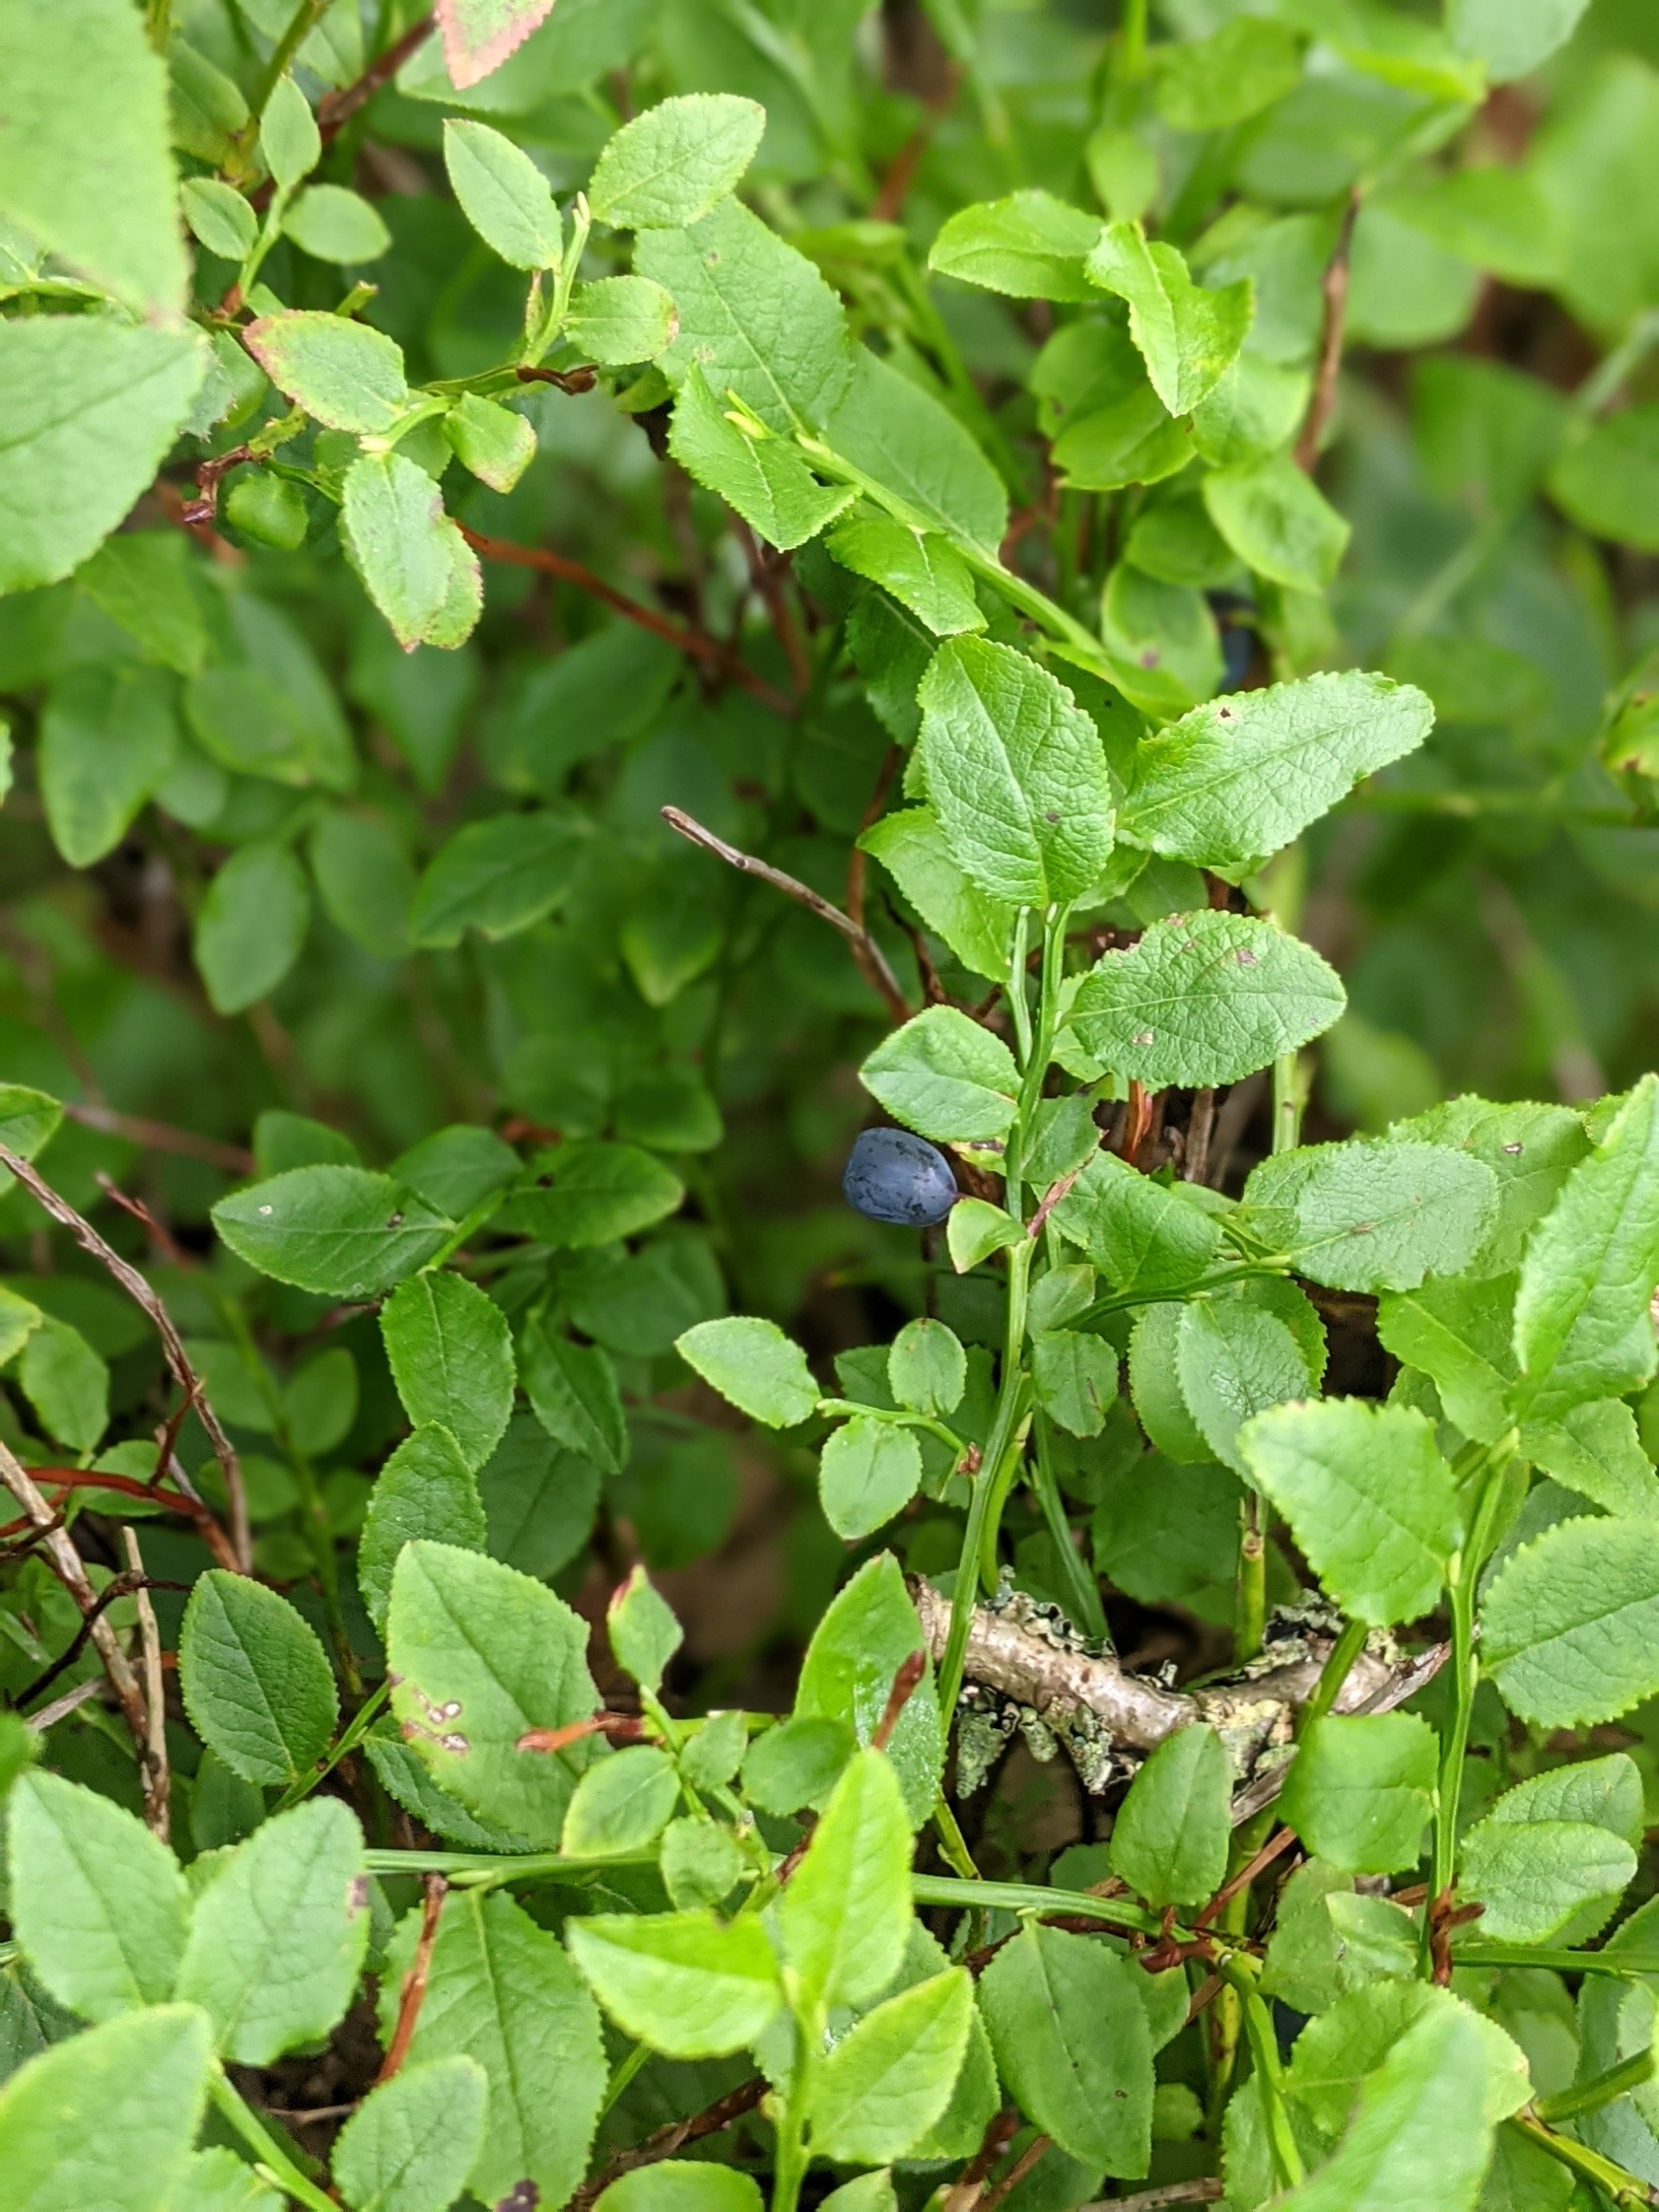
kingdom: Plantae
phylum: Tracheophyta
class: Magnoliopsida
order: Ericales
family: Ericaceae
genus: Vaccinium
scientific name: Vaccinium myrtillus
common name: Blåbær
